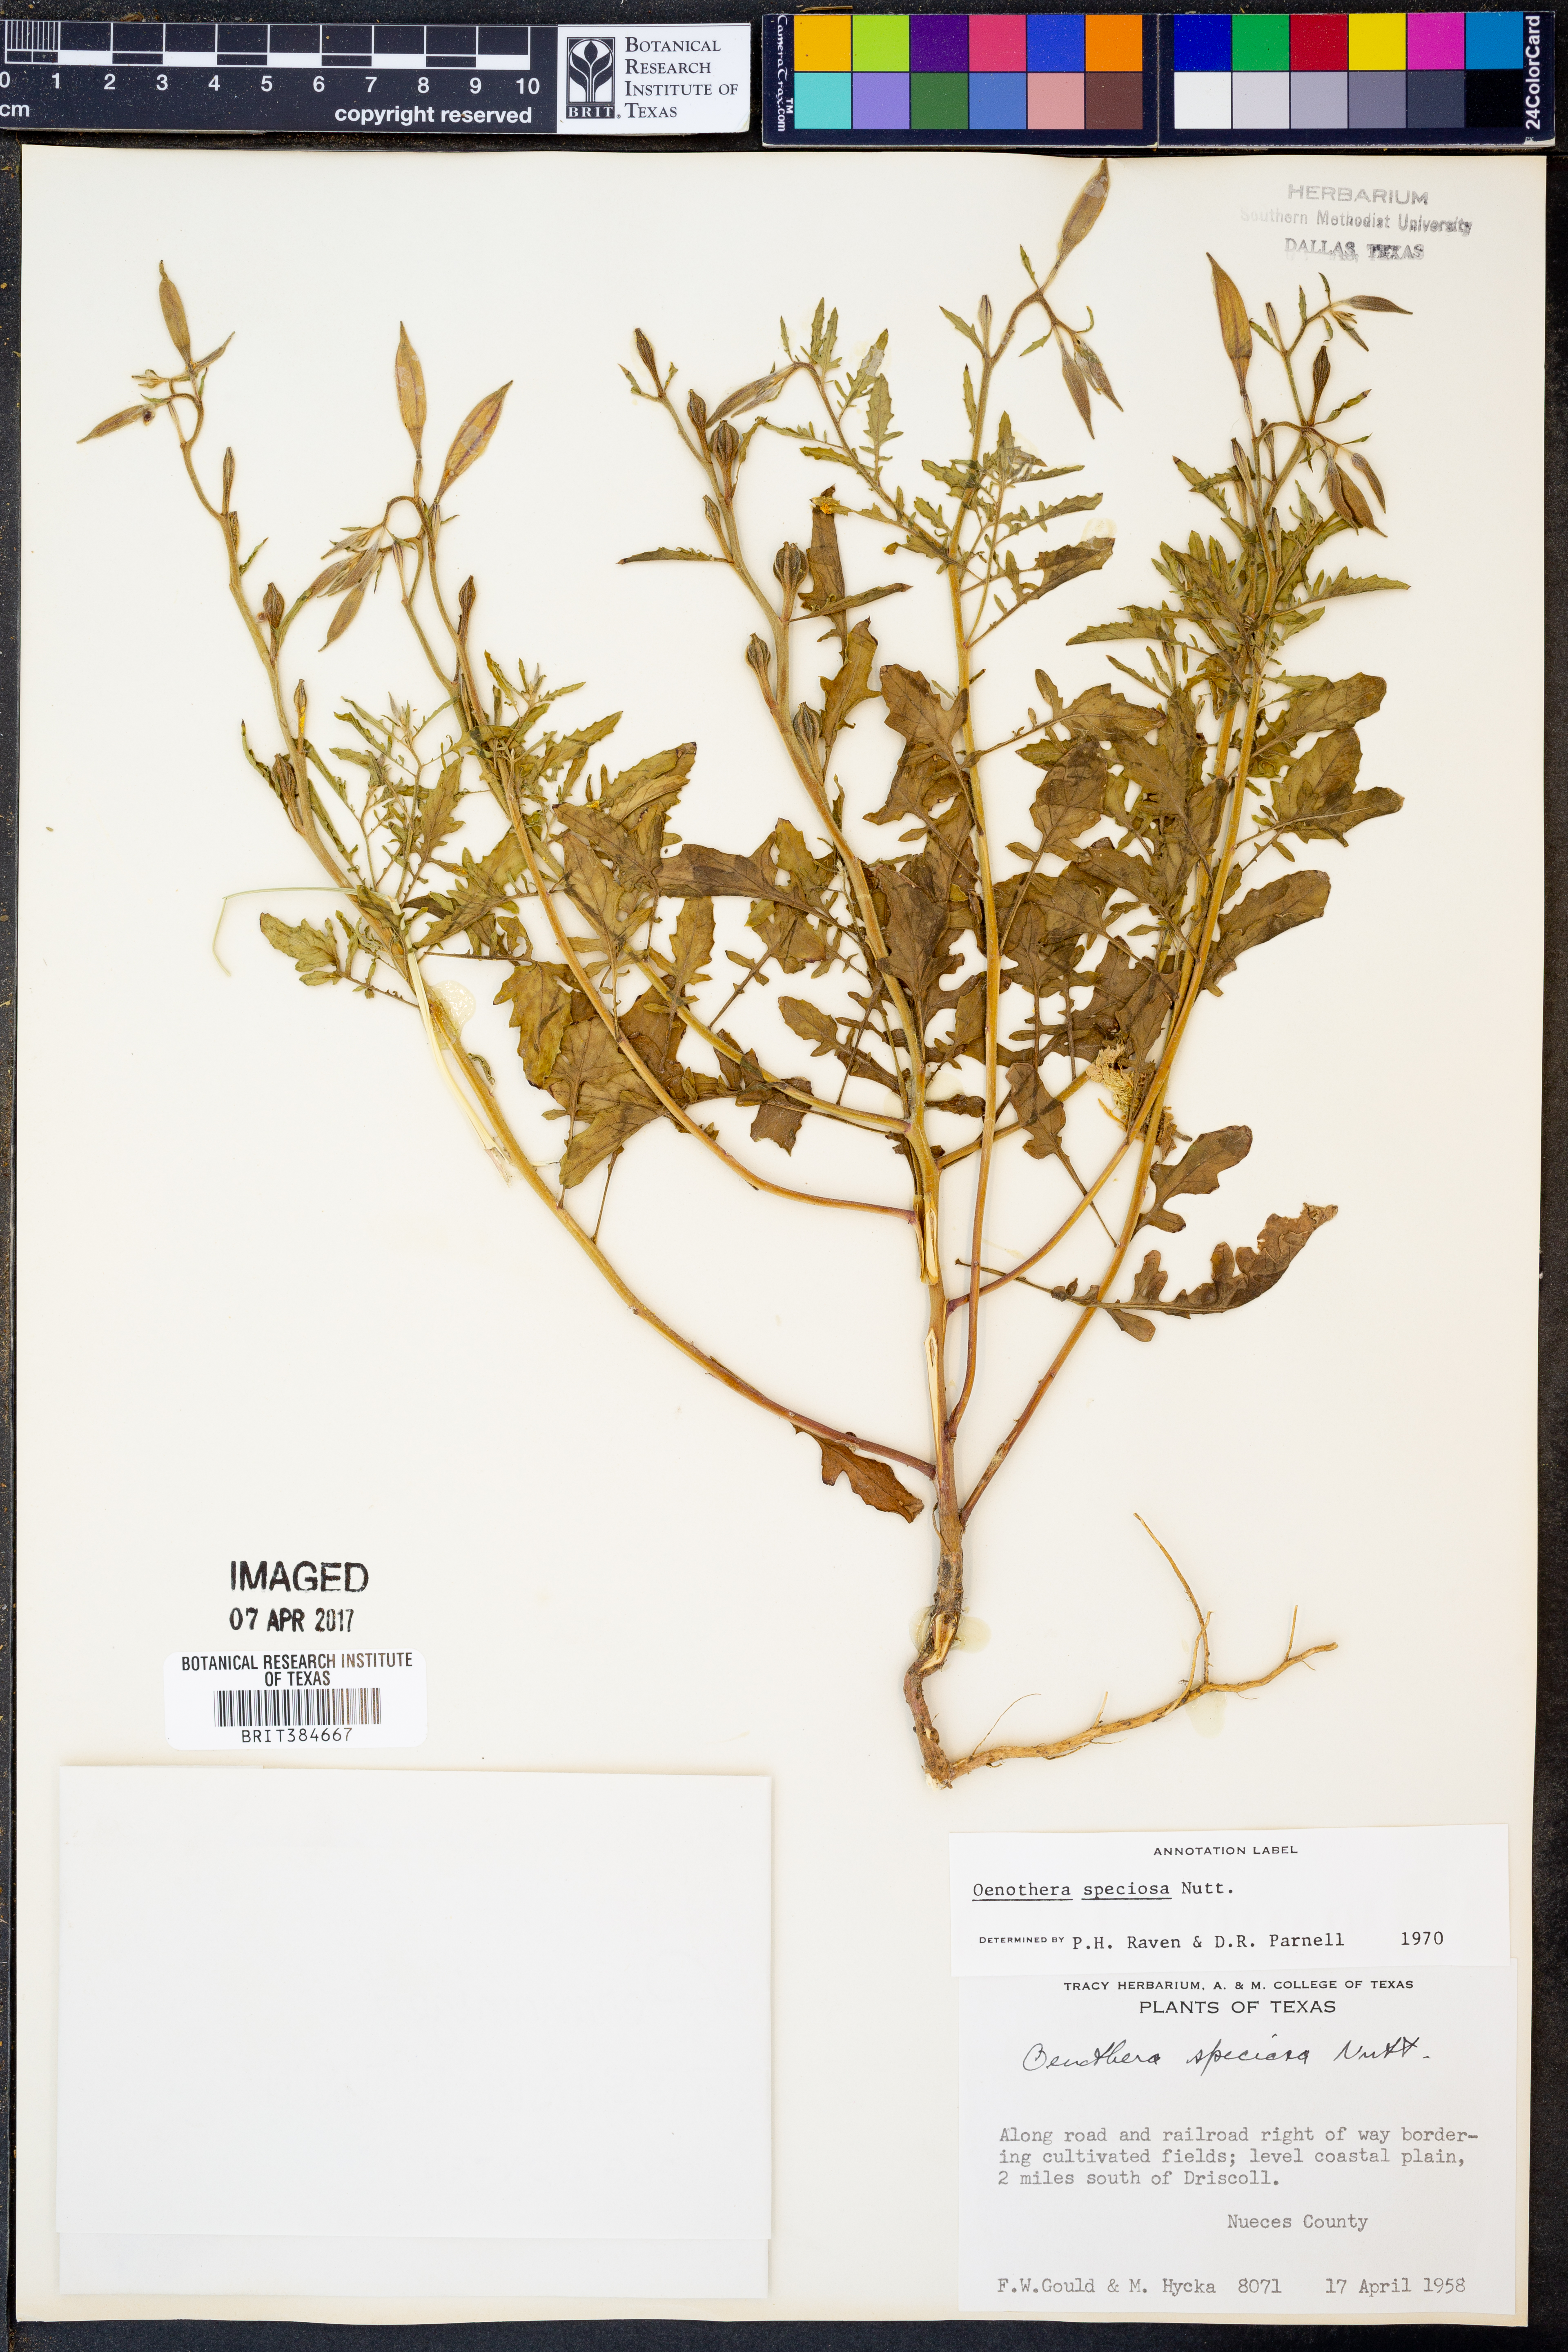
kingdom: Plantae
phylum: Tracheophyta
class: Magnoliopsida
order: Myrtales
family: Onagraceae
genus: Oenothera
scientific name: Oenothera speciosa
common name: White evening-primrose
